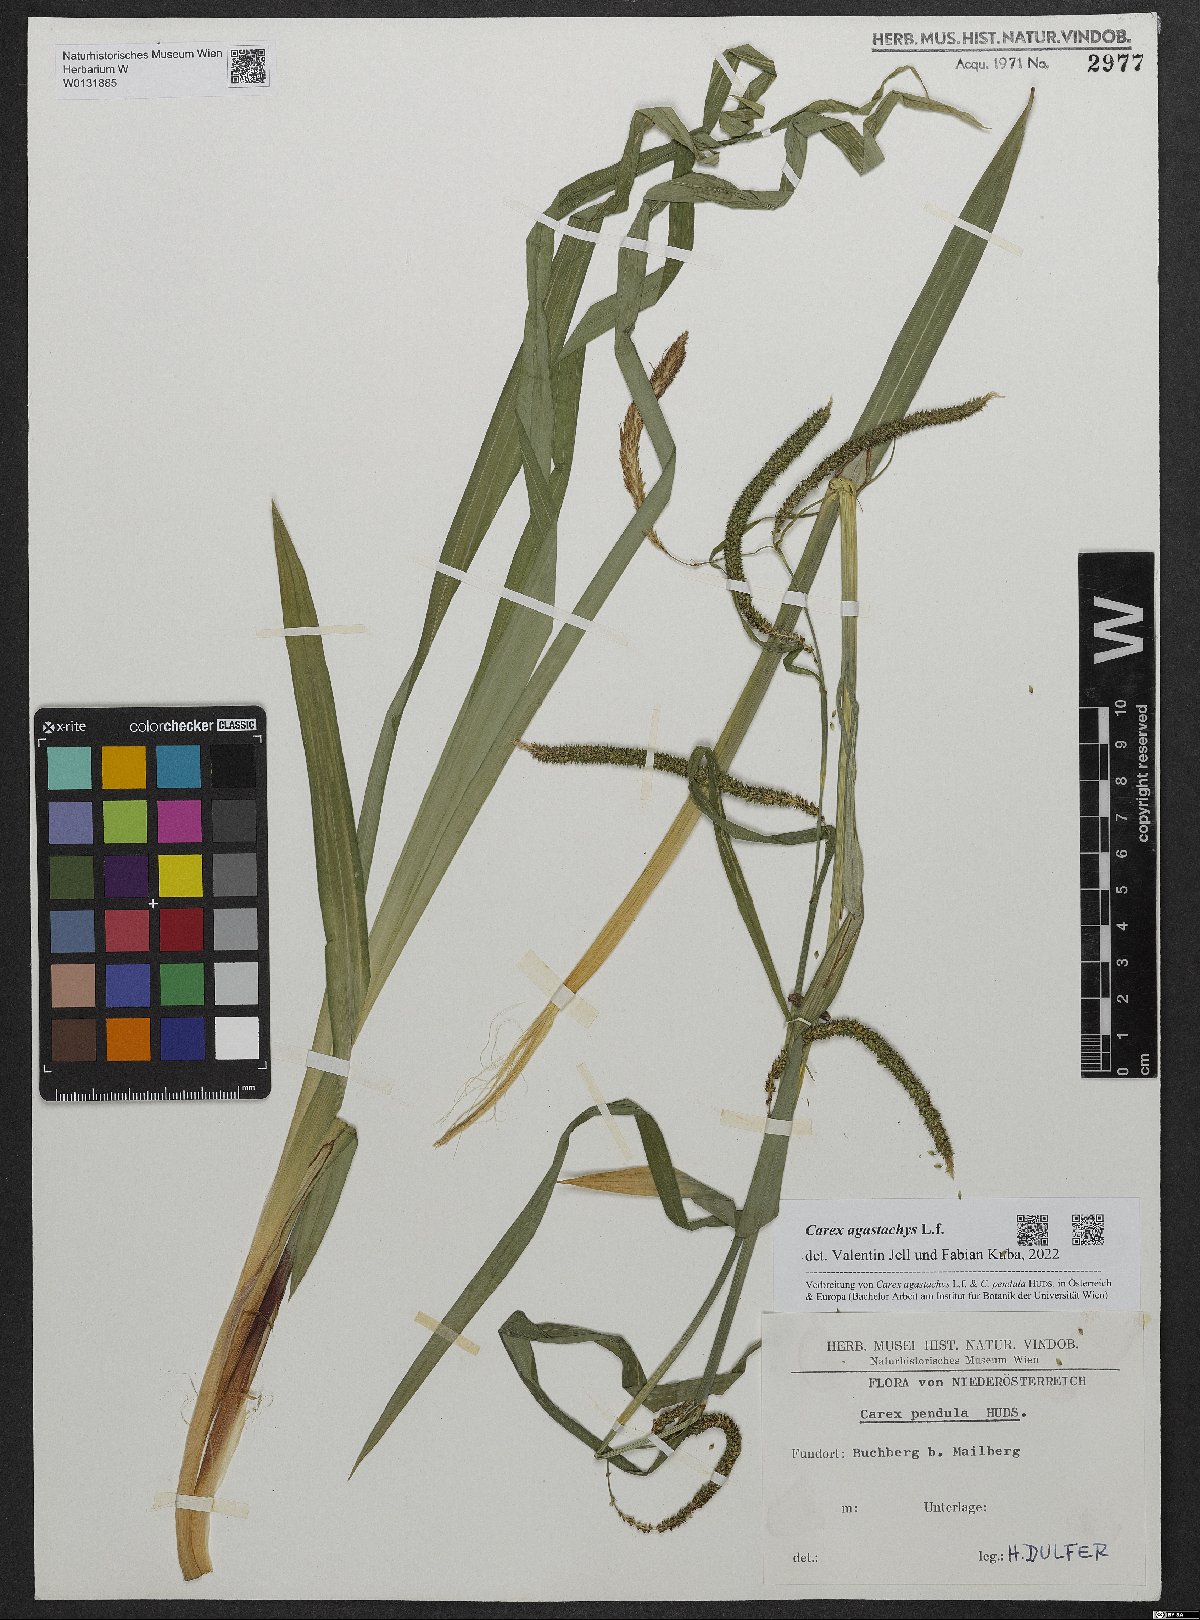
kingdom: Plantae
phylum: Tracheophyta
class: Liliopsida
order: Poales
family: Cyperaceae
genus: Carex
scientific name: Carex agastachys
